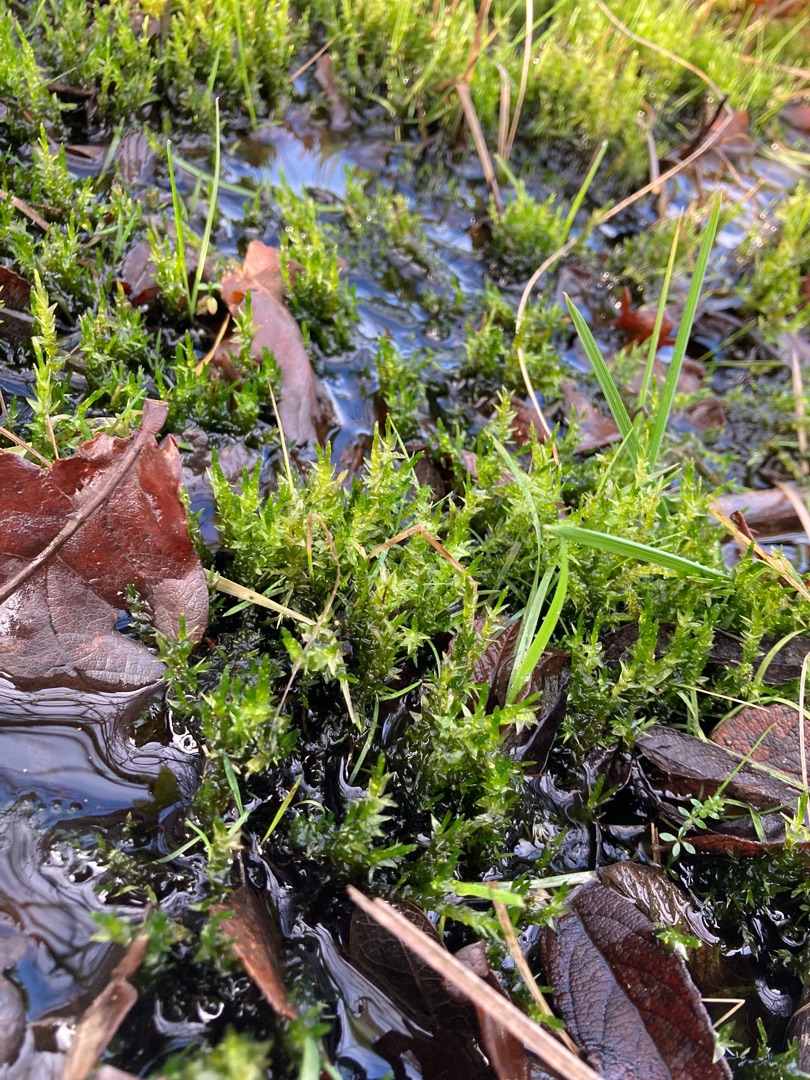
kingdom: Plantae
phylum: Bryophyta
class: Bryopsida
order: Hypnales
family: Calliergonaceae
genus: Calliergon
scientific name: Calliergon cordifolium
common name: Almindelig skebladsmos
